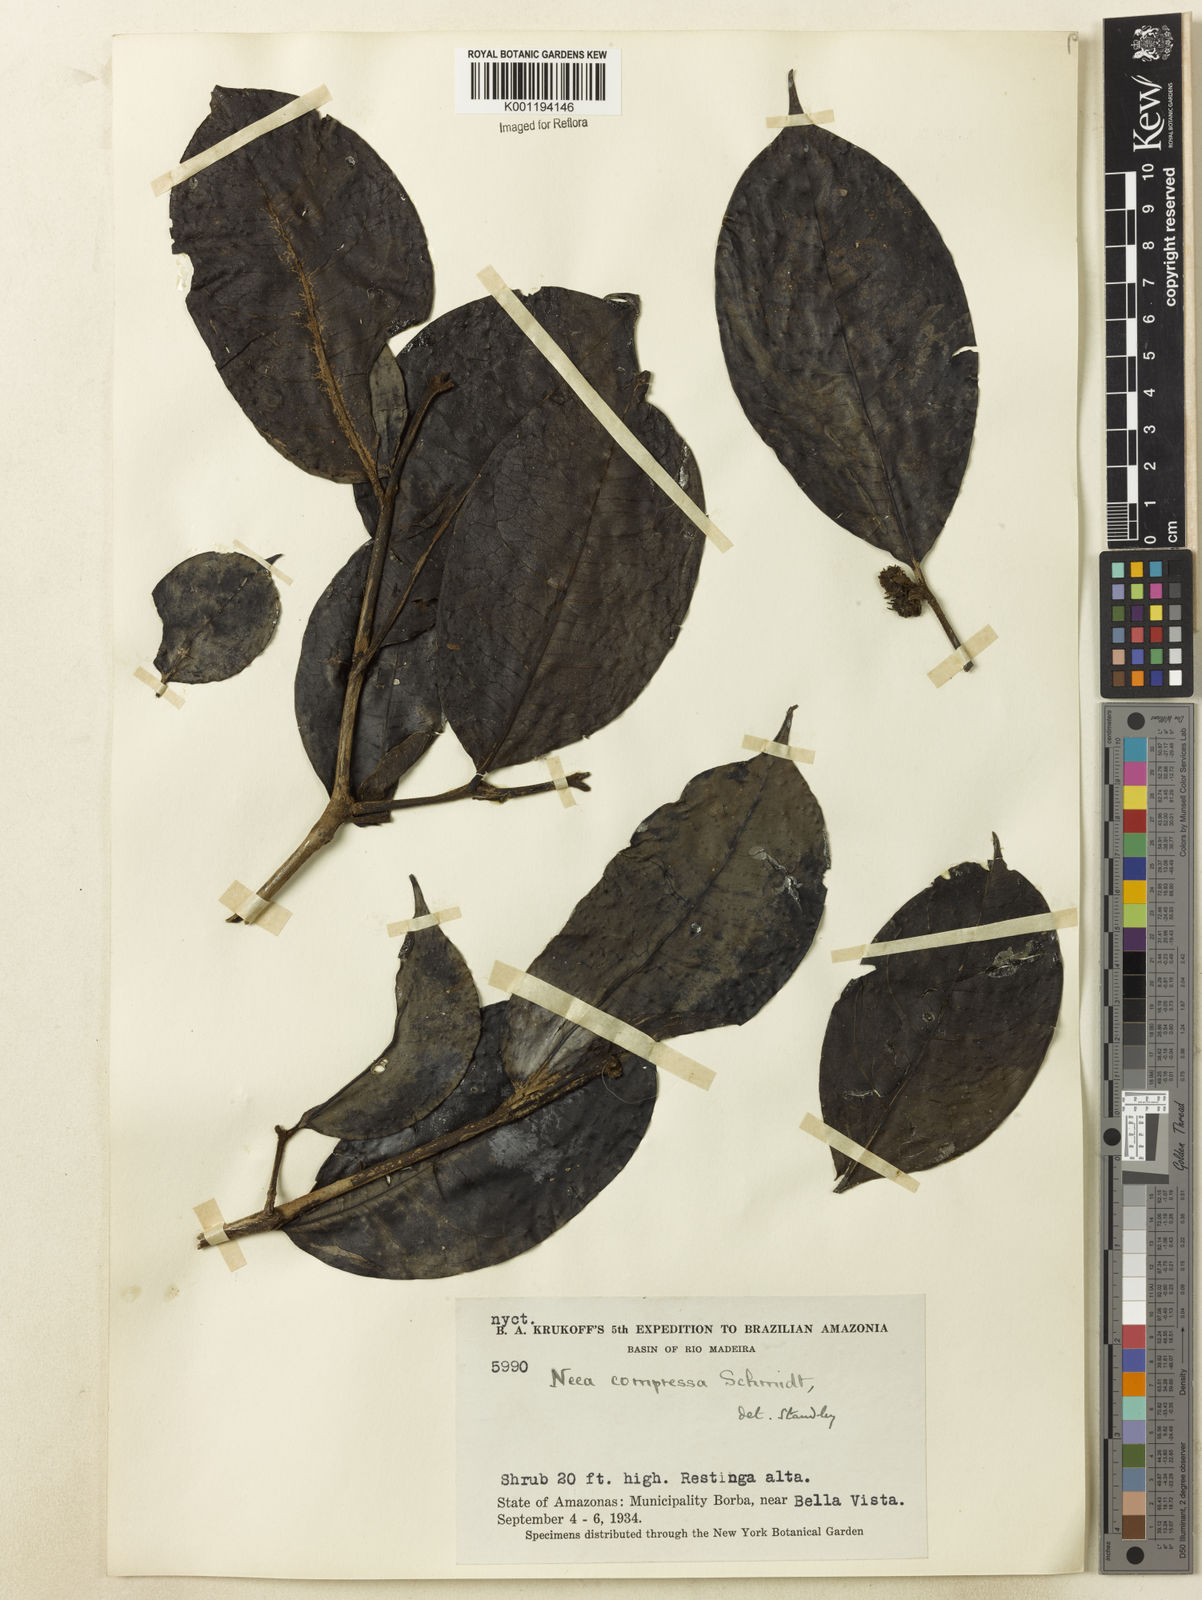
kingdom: Plantae
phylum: Tracheophyta
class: Magnoliopsida
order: Caryophyllales
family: Nyctaginaceae
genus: Neea
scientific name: Neea oppositifolia
